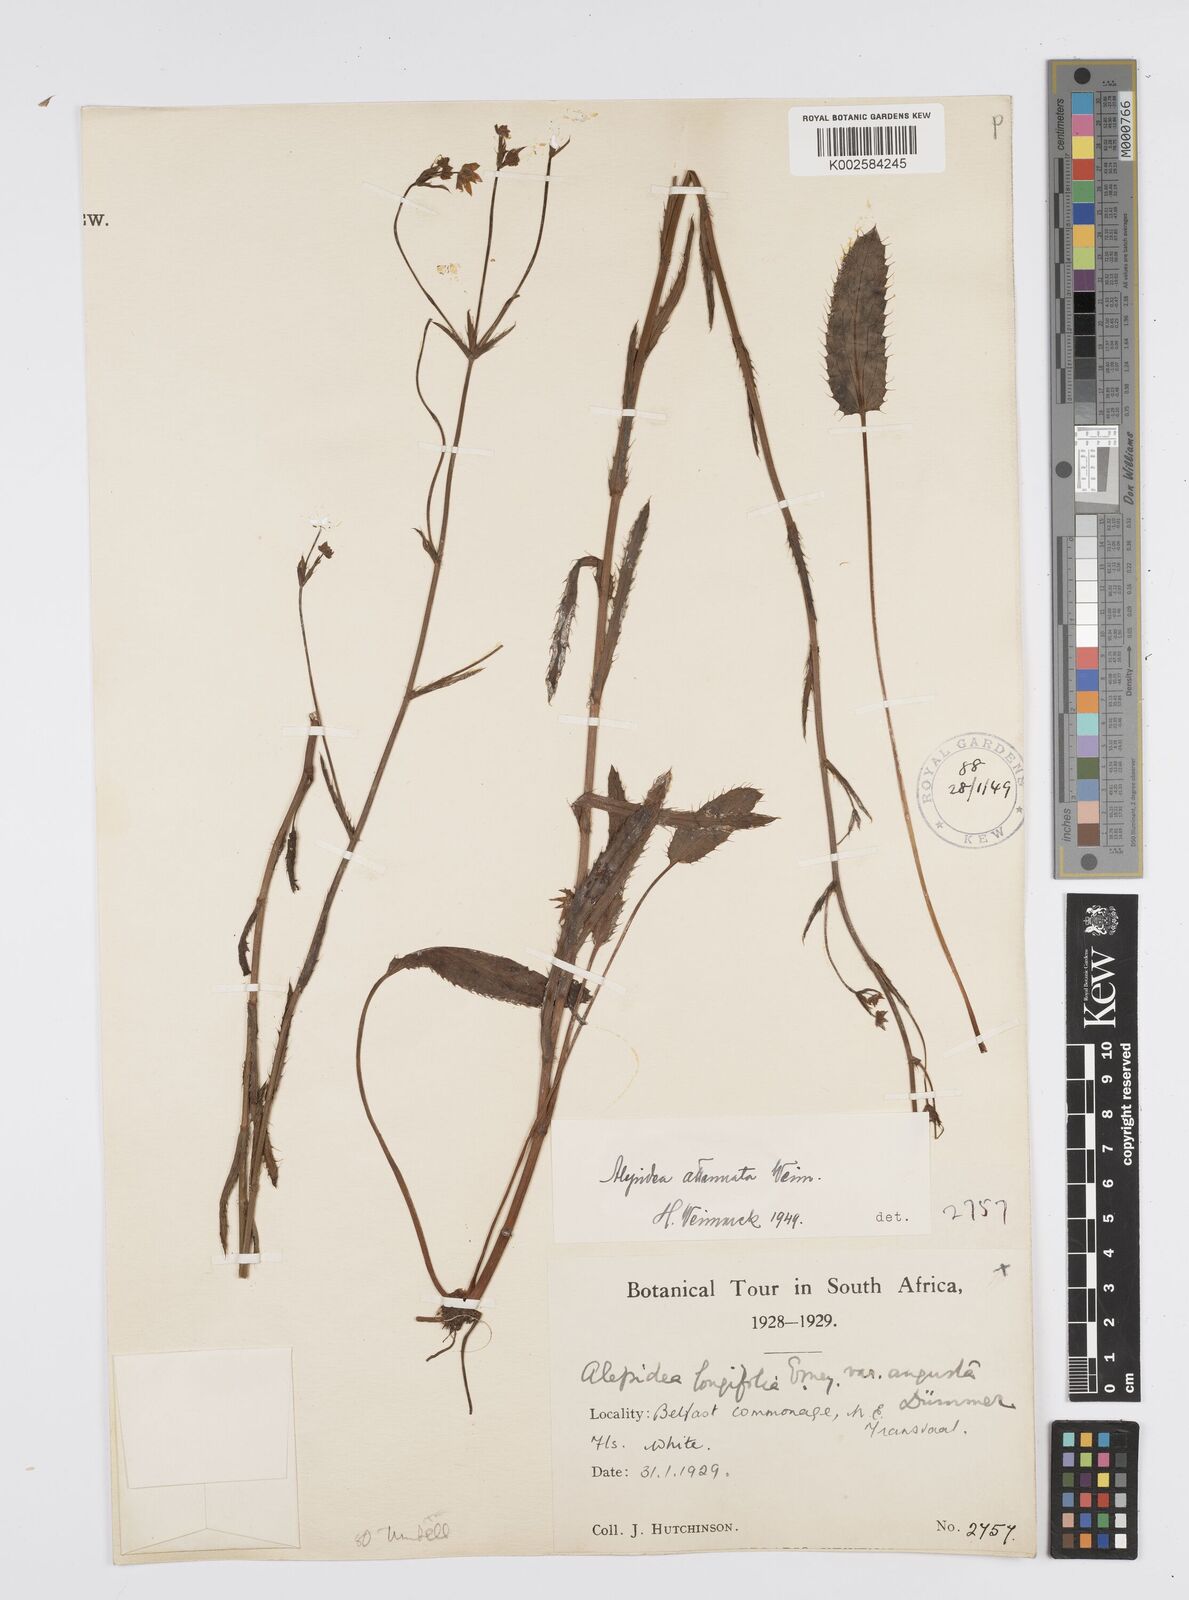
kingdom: Plantae
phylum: Tracheophyta
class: Magnoliopsida
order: Apiales
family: Apiaceae
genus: Alepidea
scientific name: Alepidea attenuata
